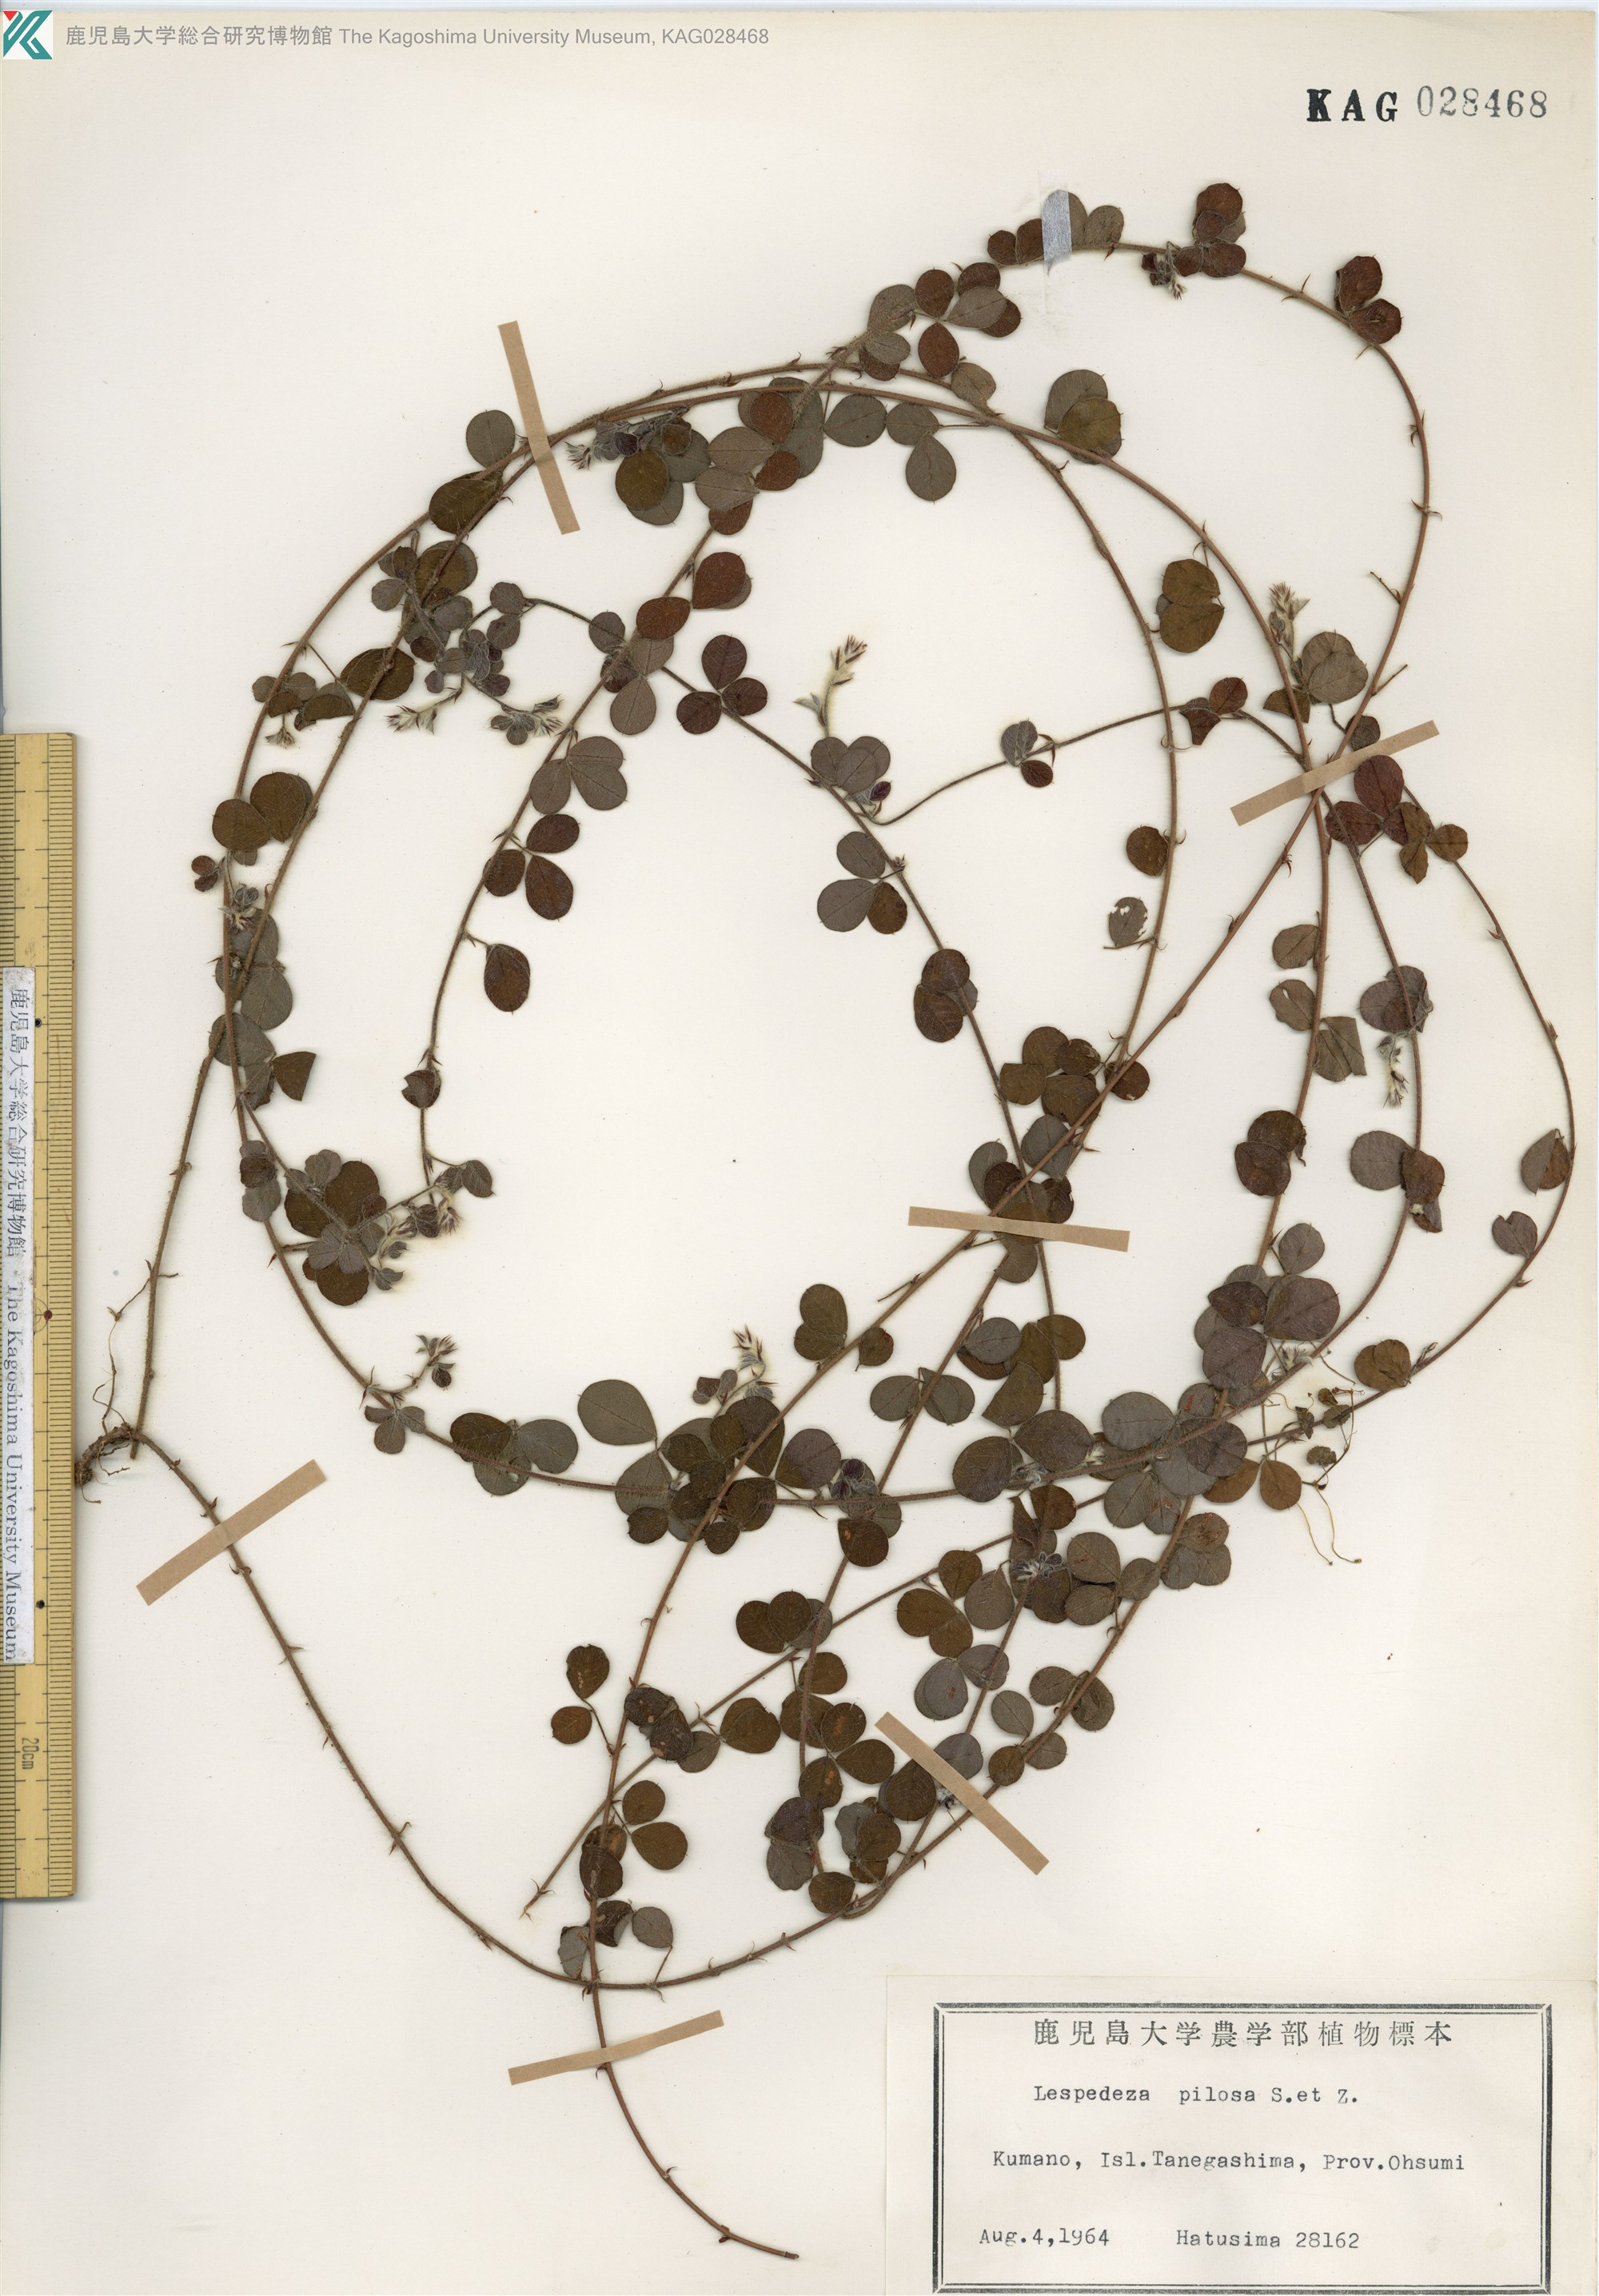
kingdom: Plantae
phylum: Tracheophyta
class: Magnoliopsida
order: Fabales
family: Fabaceae
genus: Lespedeza
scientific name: Lespedeza pilosa
